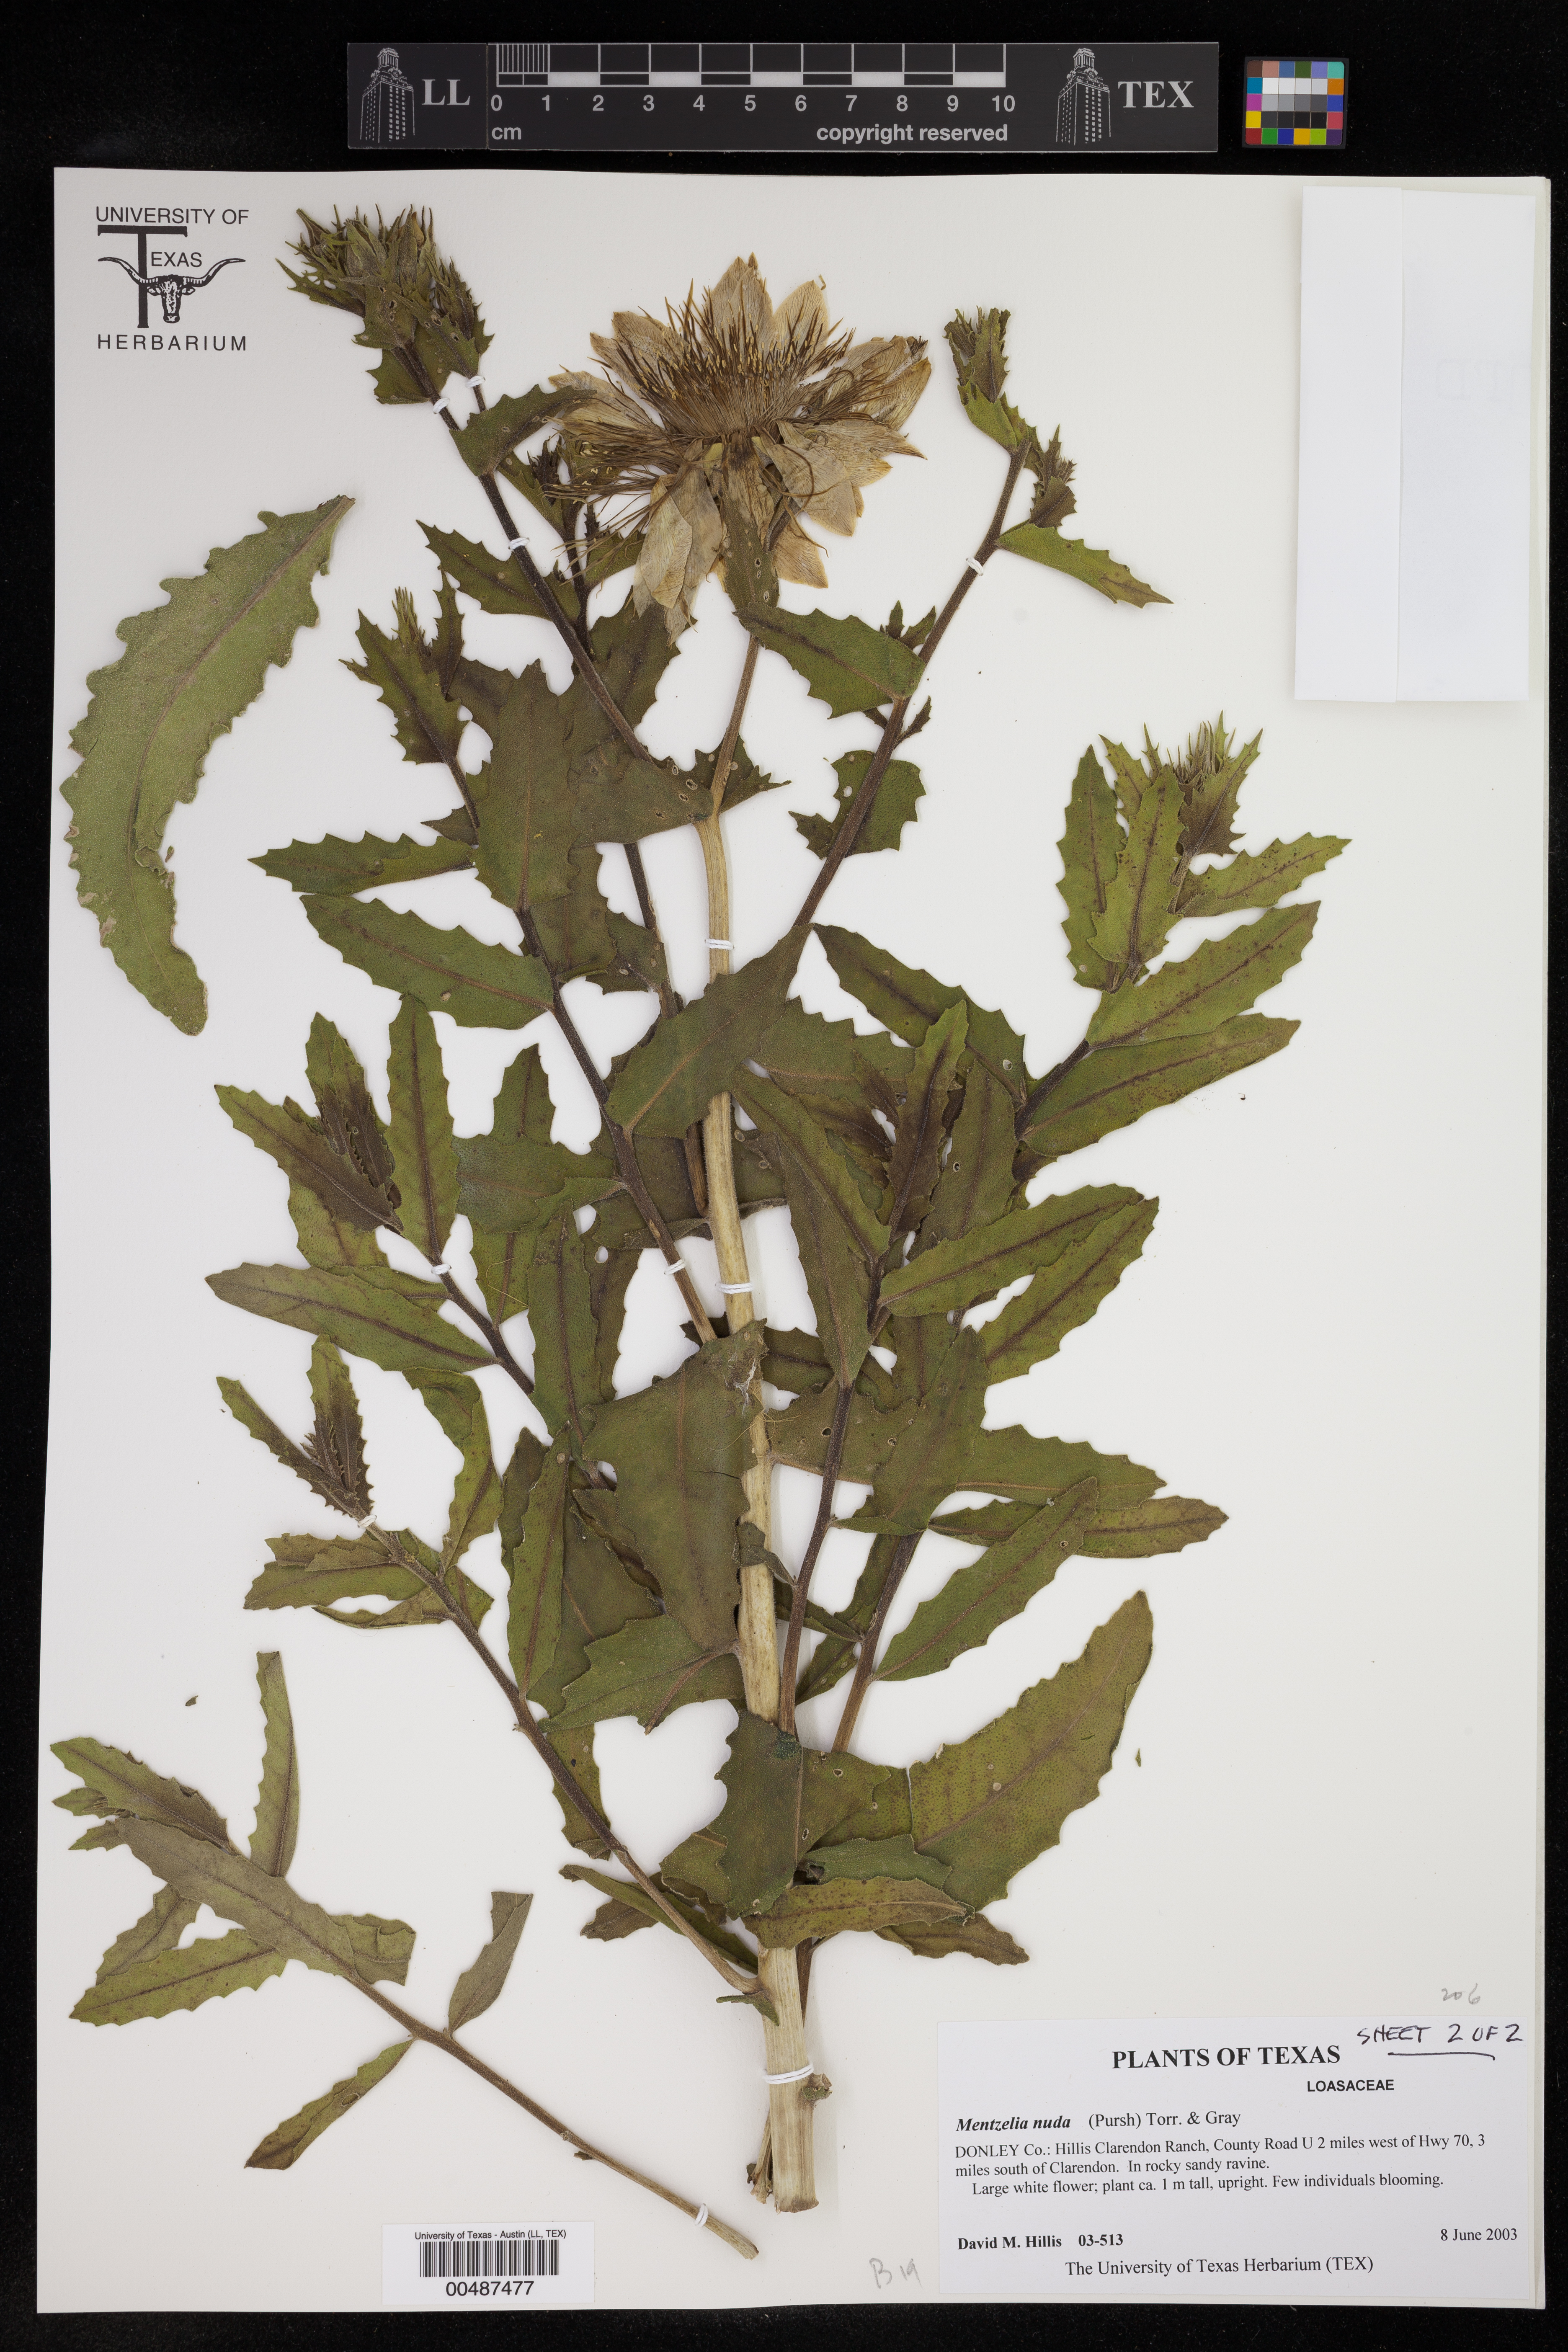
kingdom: Plantae
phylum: Tracheophyta
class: Magnoliopsida
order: Cornales
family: Loasaceae
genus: Mentzelia
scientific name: Mentzelia nuda
